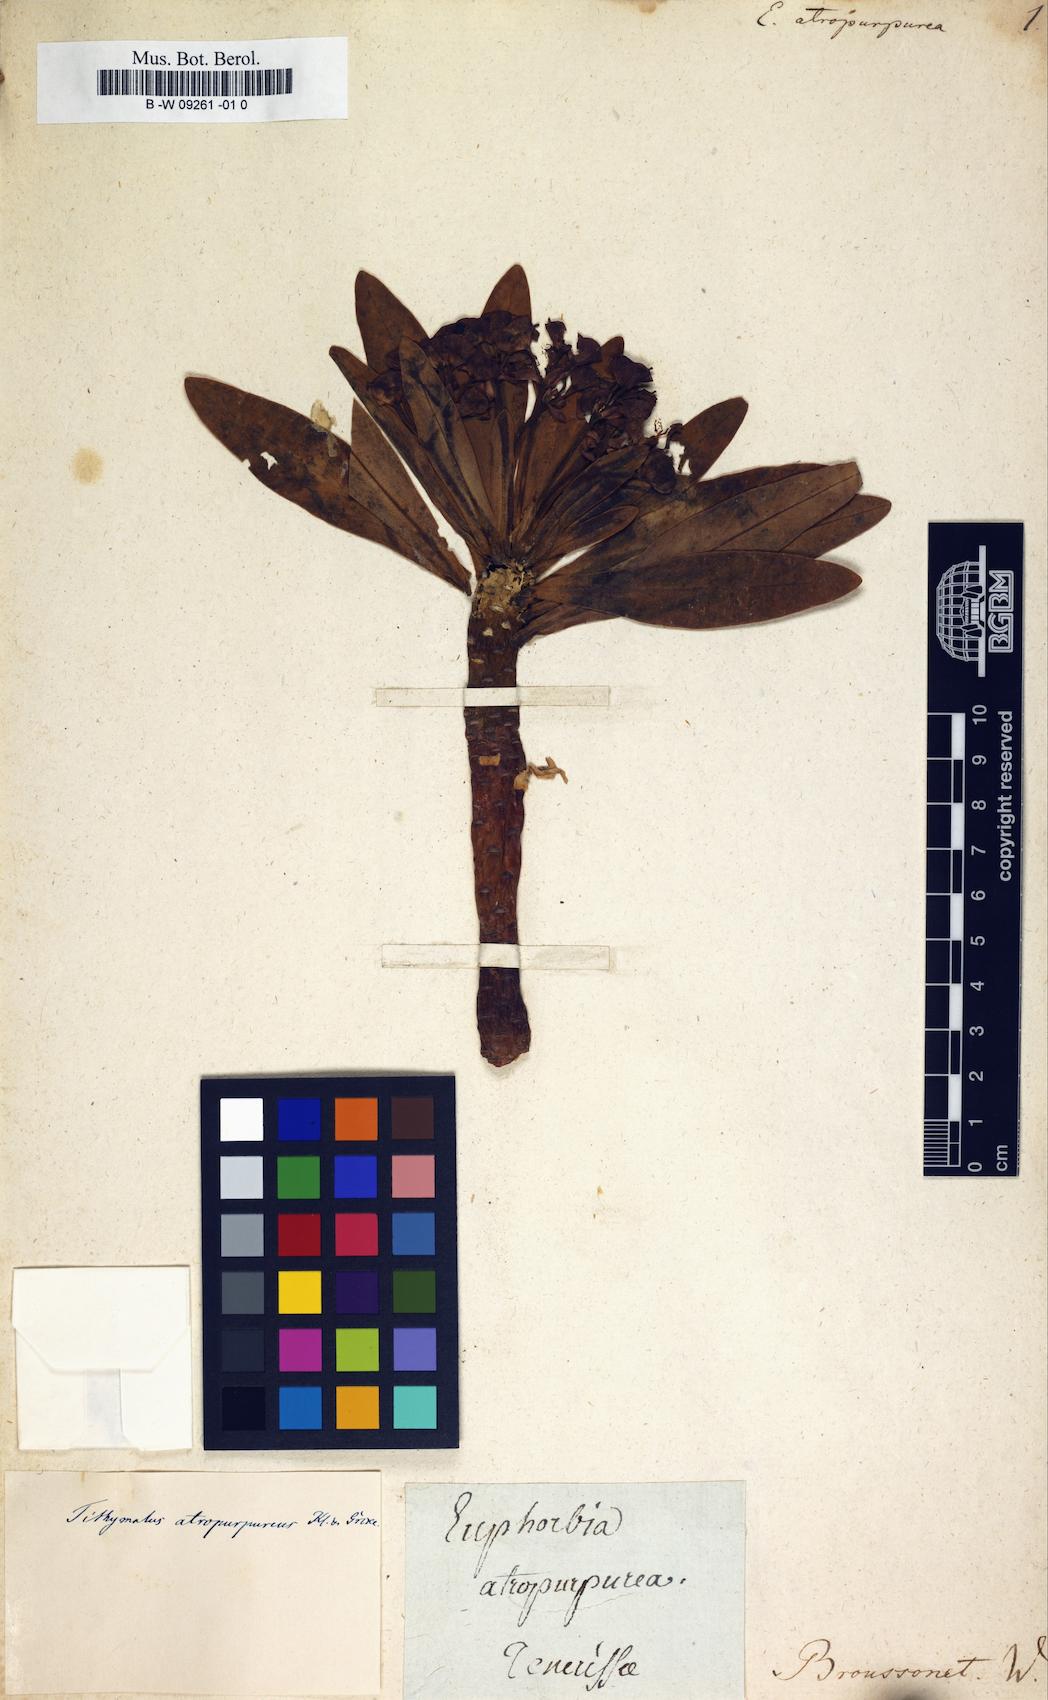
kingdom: Plantae
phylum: Tracheophyta
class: Magnoliopsida
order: Malpighiales
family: Euphorbiaceae
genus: Euphorbia
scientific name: Euphorbia rosea
